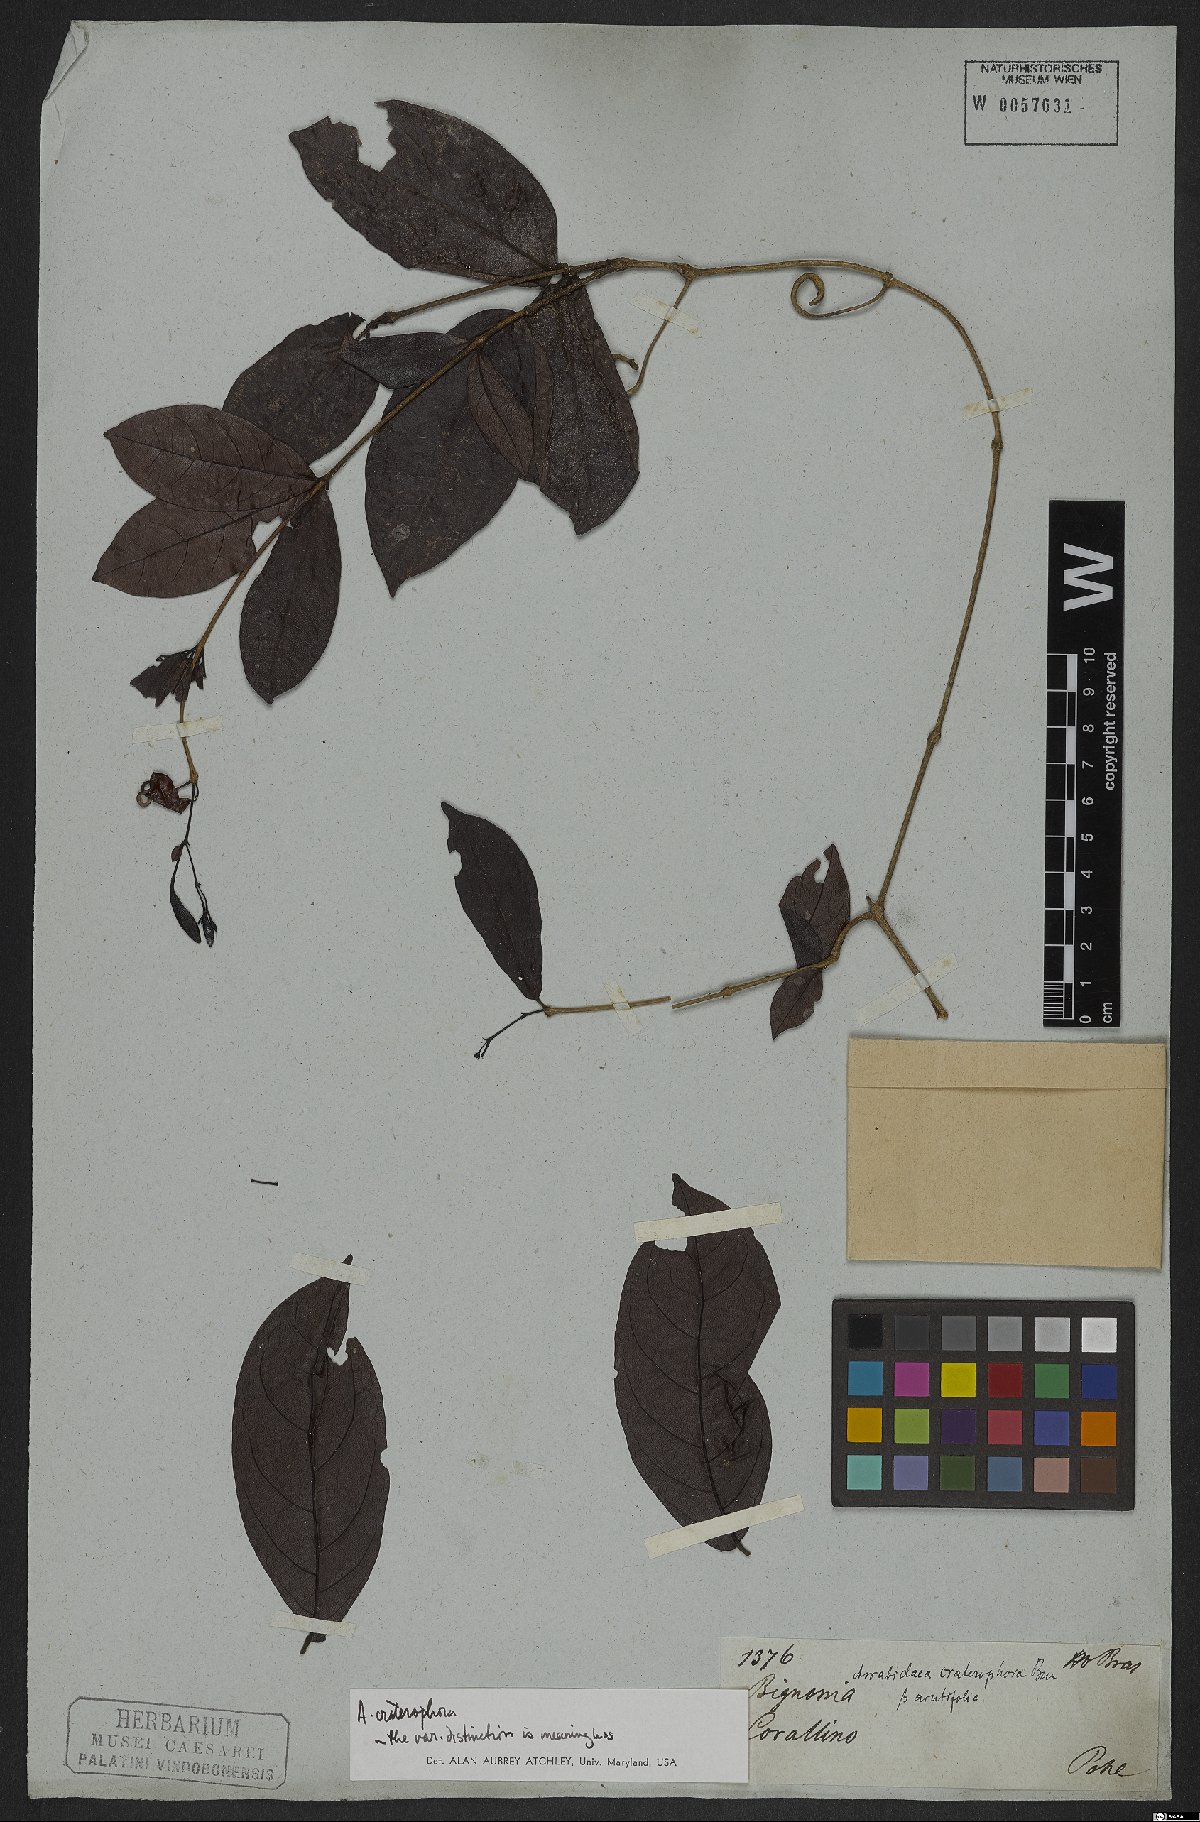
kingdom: Plantae
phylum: Tracheophyta
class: Magnoliopsida
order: Lamiales
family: Bignoniaceae
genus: Fridericia
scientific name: Fridericia craterophora
